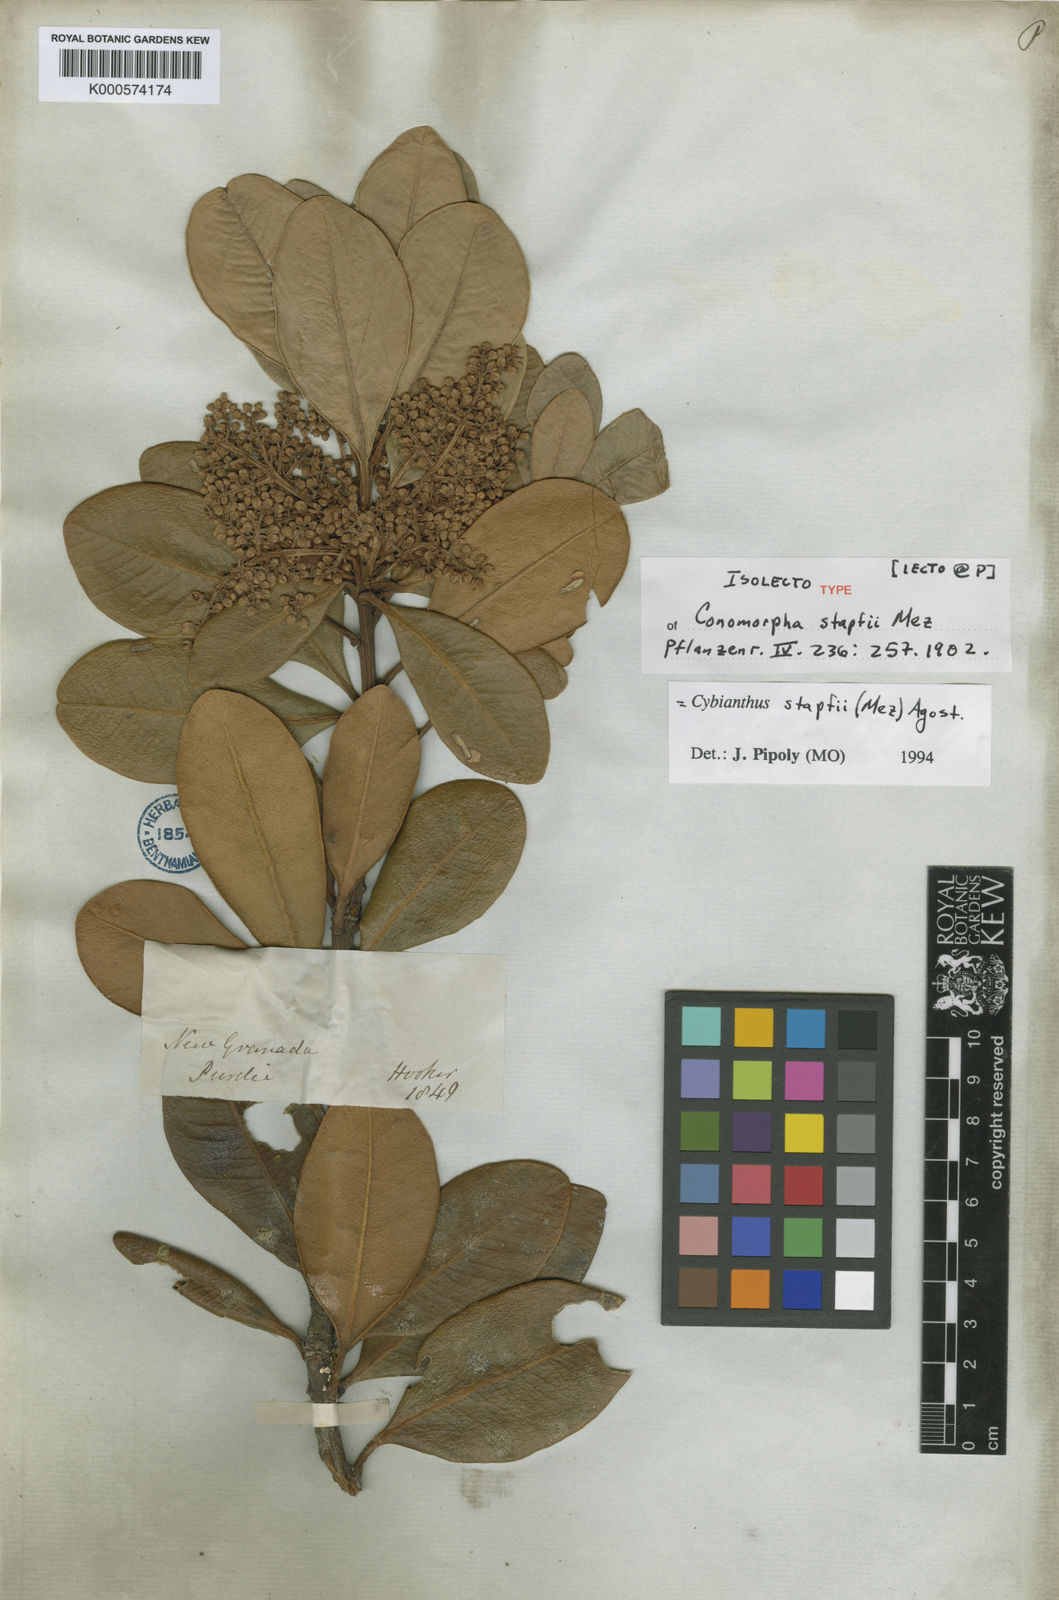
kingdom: Plantae
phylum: Tracheophyta
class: Magnoliopsida
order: Ericales
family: Primulaceae
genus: Cybianthus
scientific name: Cybianthus stapfii
